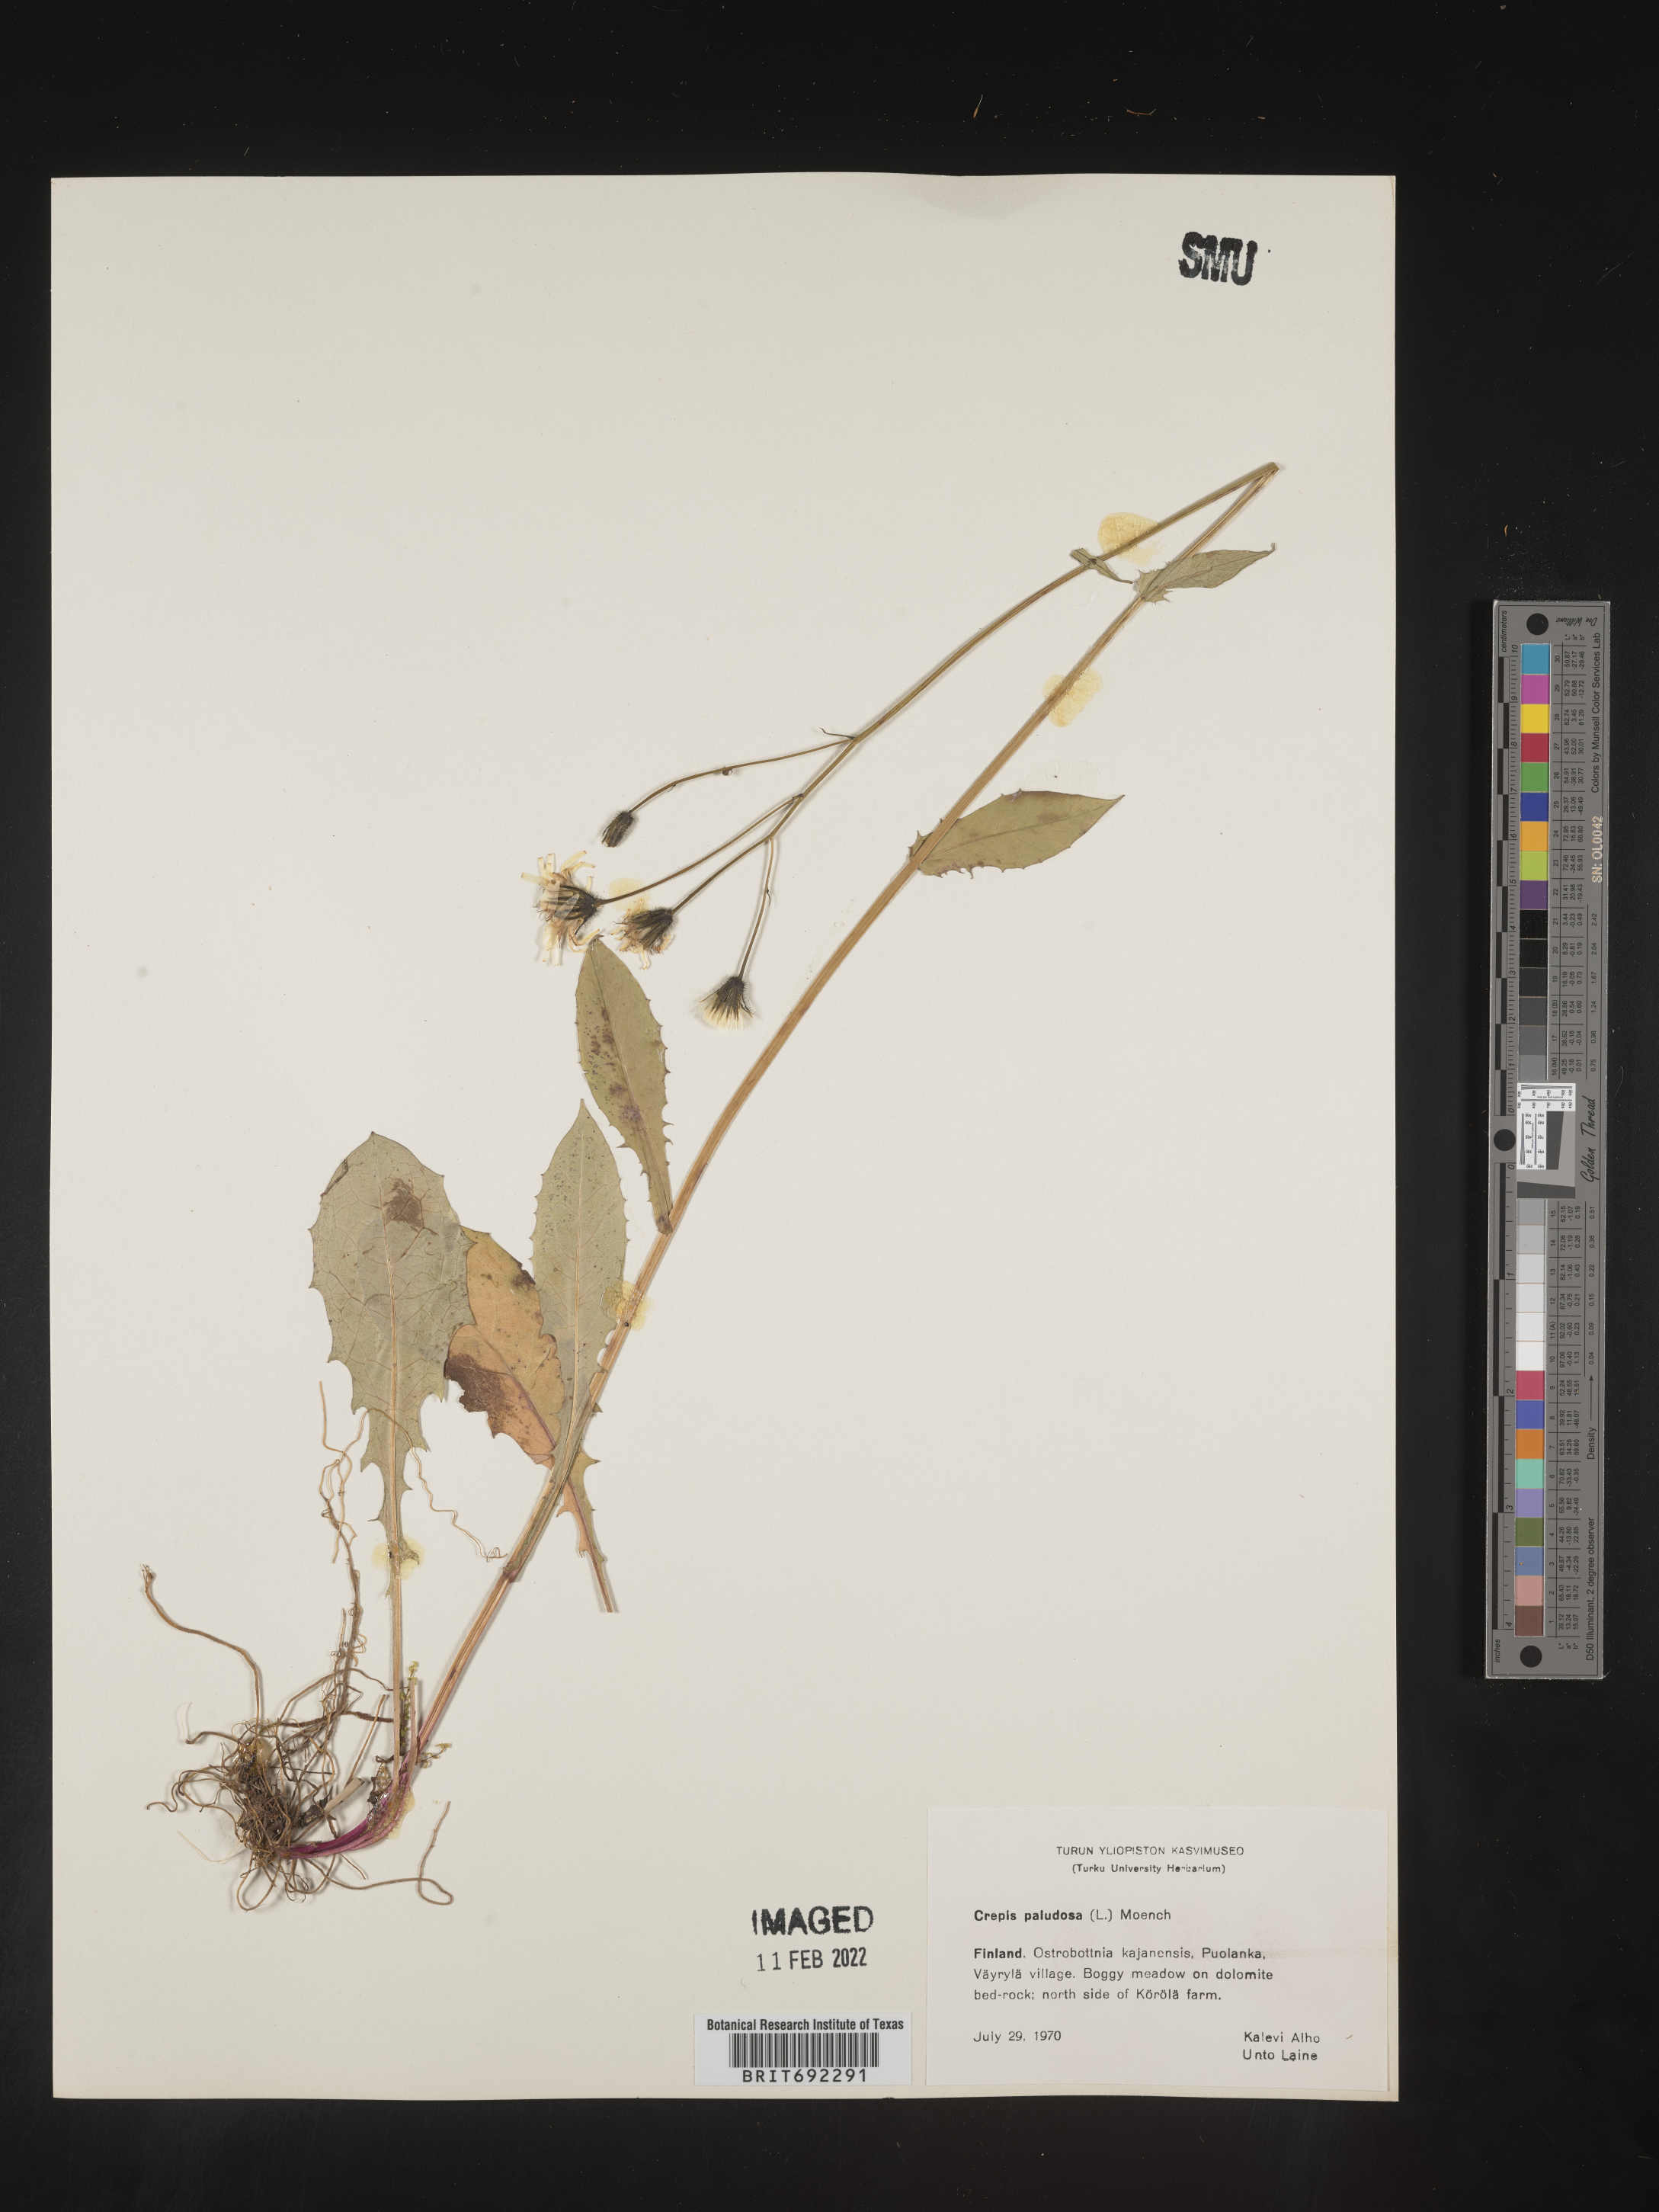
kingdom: Plantae
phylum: Tracheophyta
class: Magnoliopsida
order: Asterales
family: Asteraceae
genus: Crepis
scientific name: Crepis
